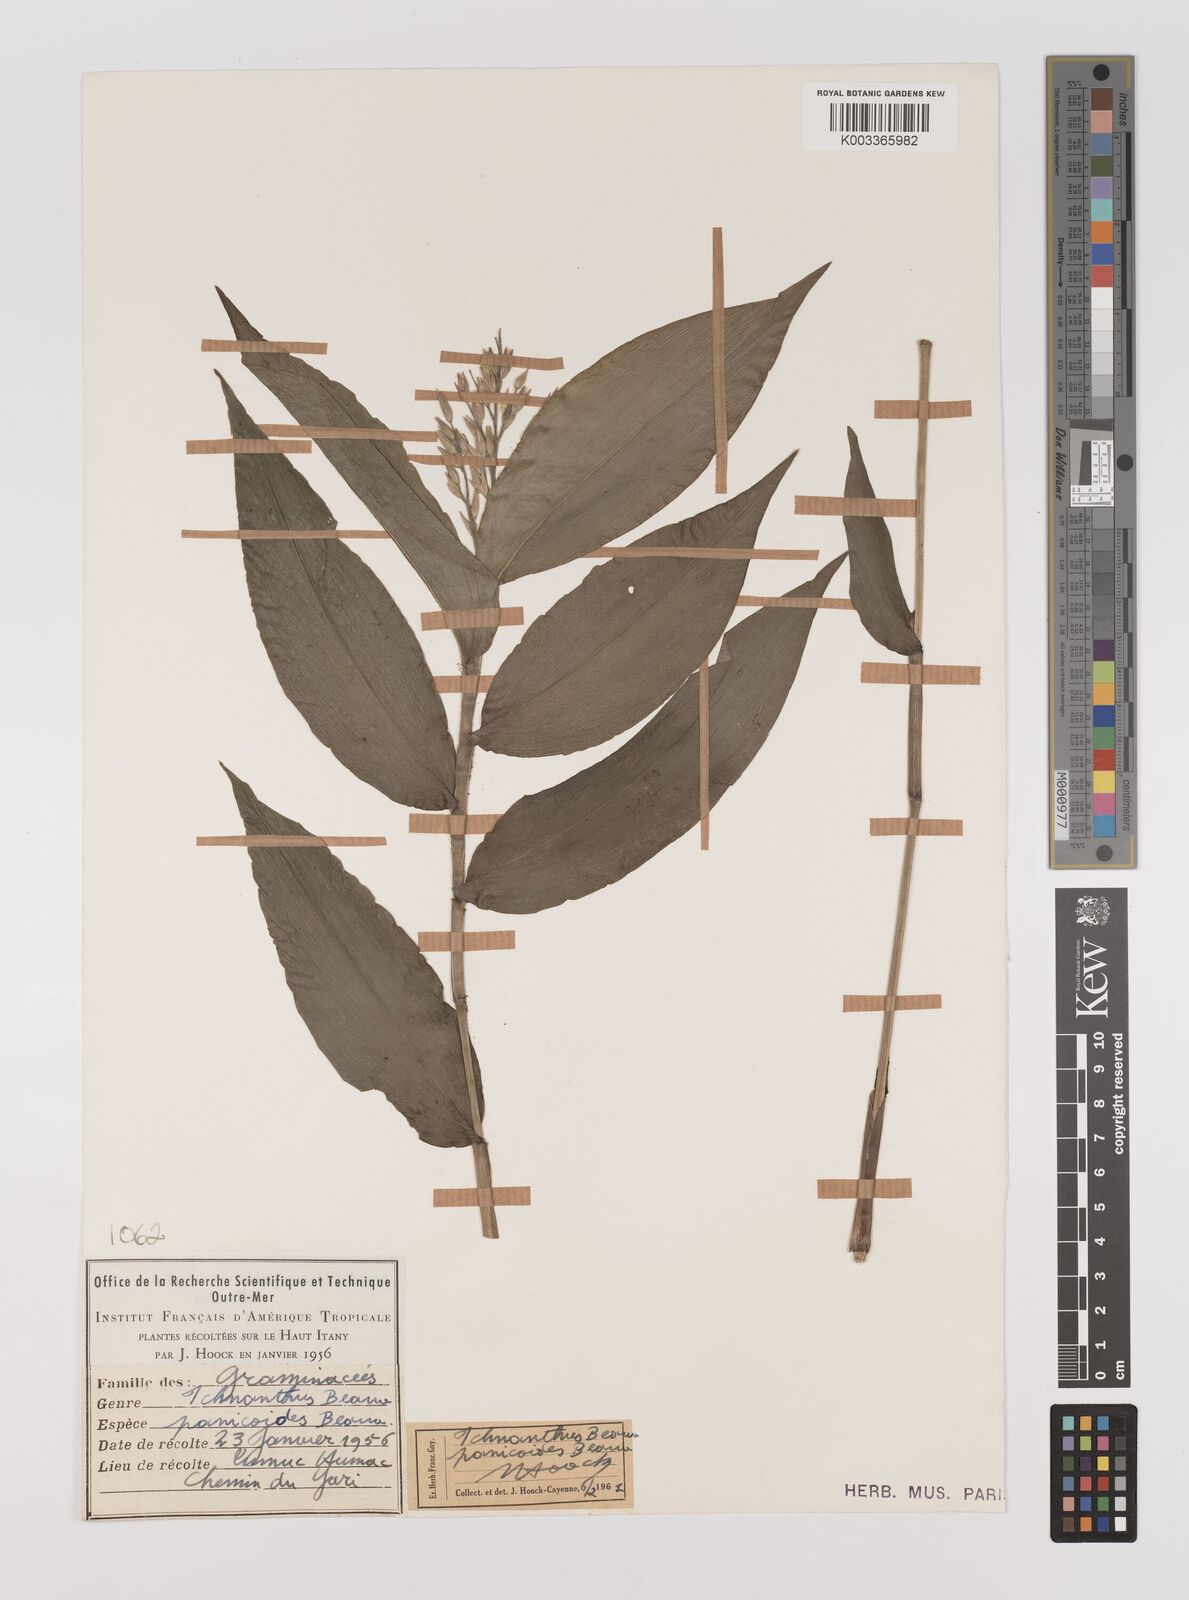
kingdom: Plantae
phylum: Tracheophyta
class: Liliopsida
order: Poales
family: Poaceae
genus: Ichnanthus
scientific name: Ichnanthus panicoides
